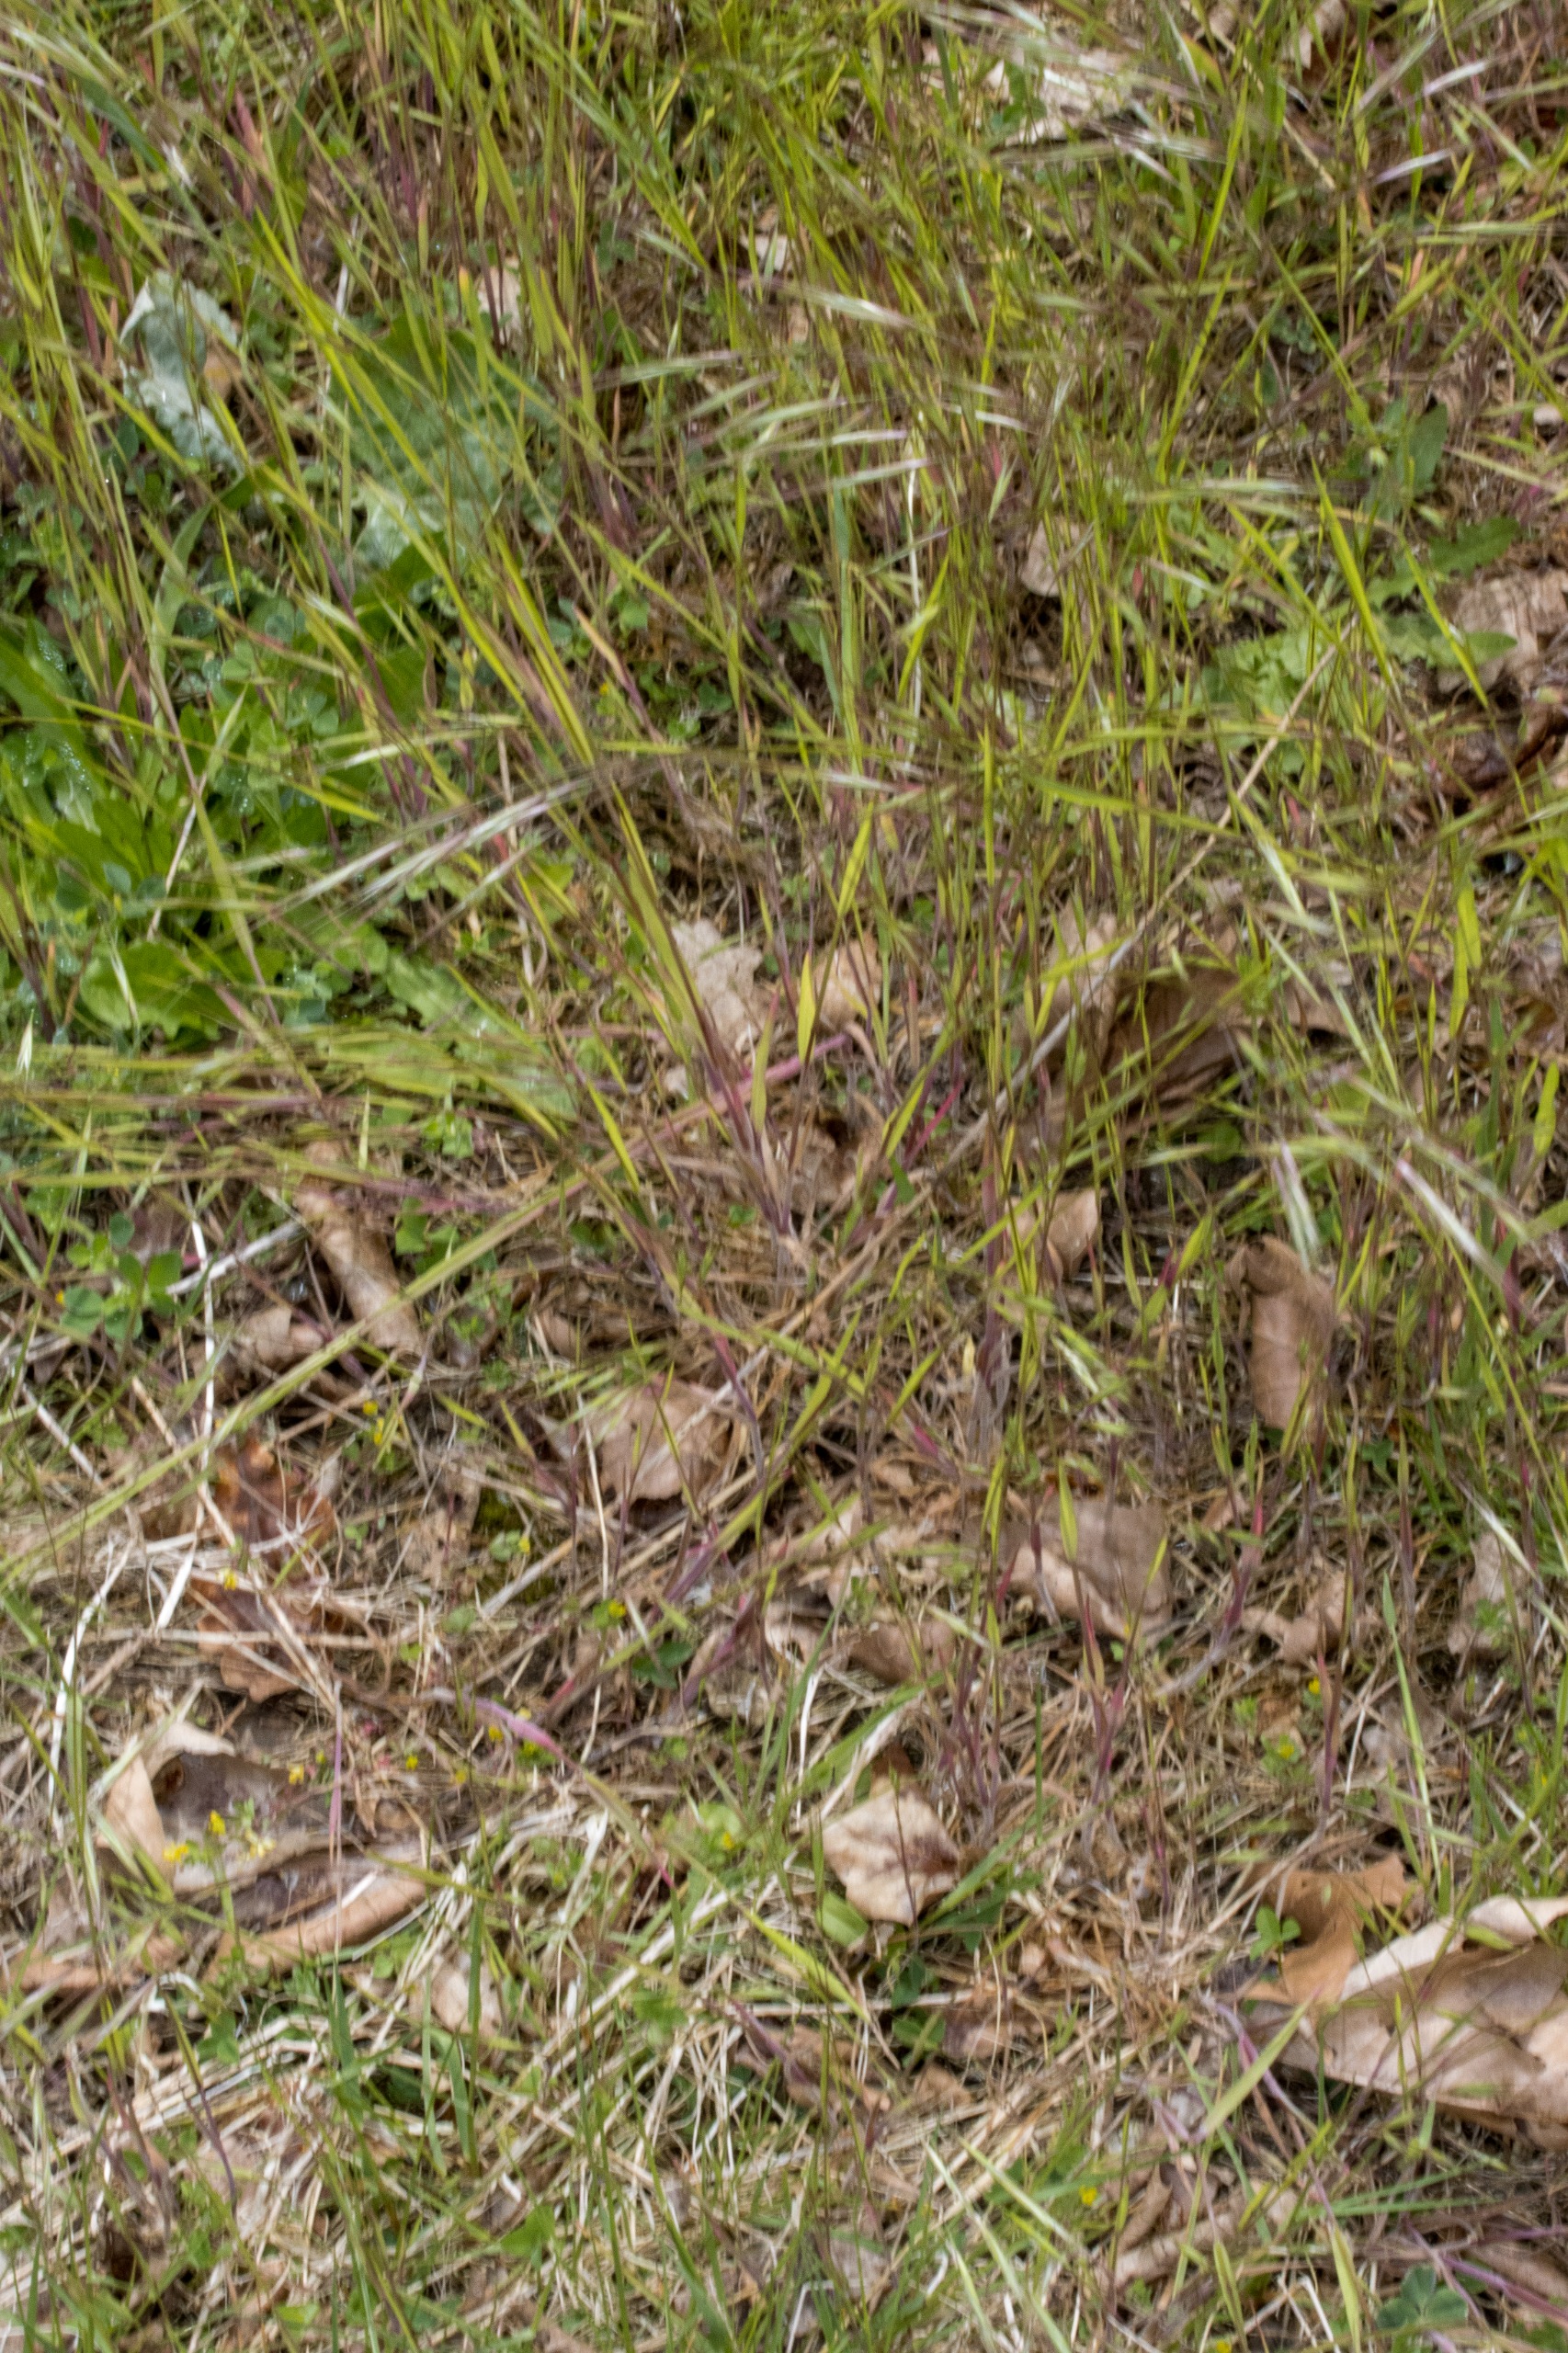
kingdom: Plantae
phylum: Tracheophyta
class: Liliopsida
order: Poales
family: Poaceae
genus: Bromus
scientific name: Bromus sterilis
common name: Gold hejre
